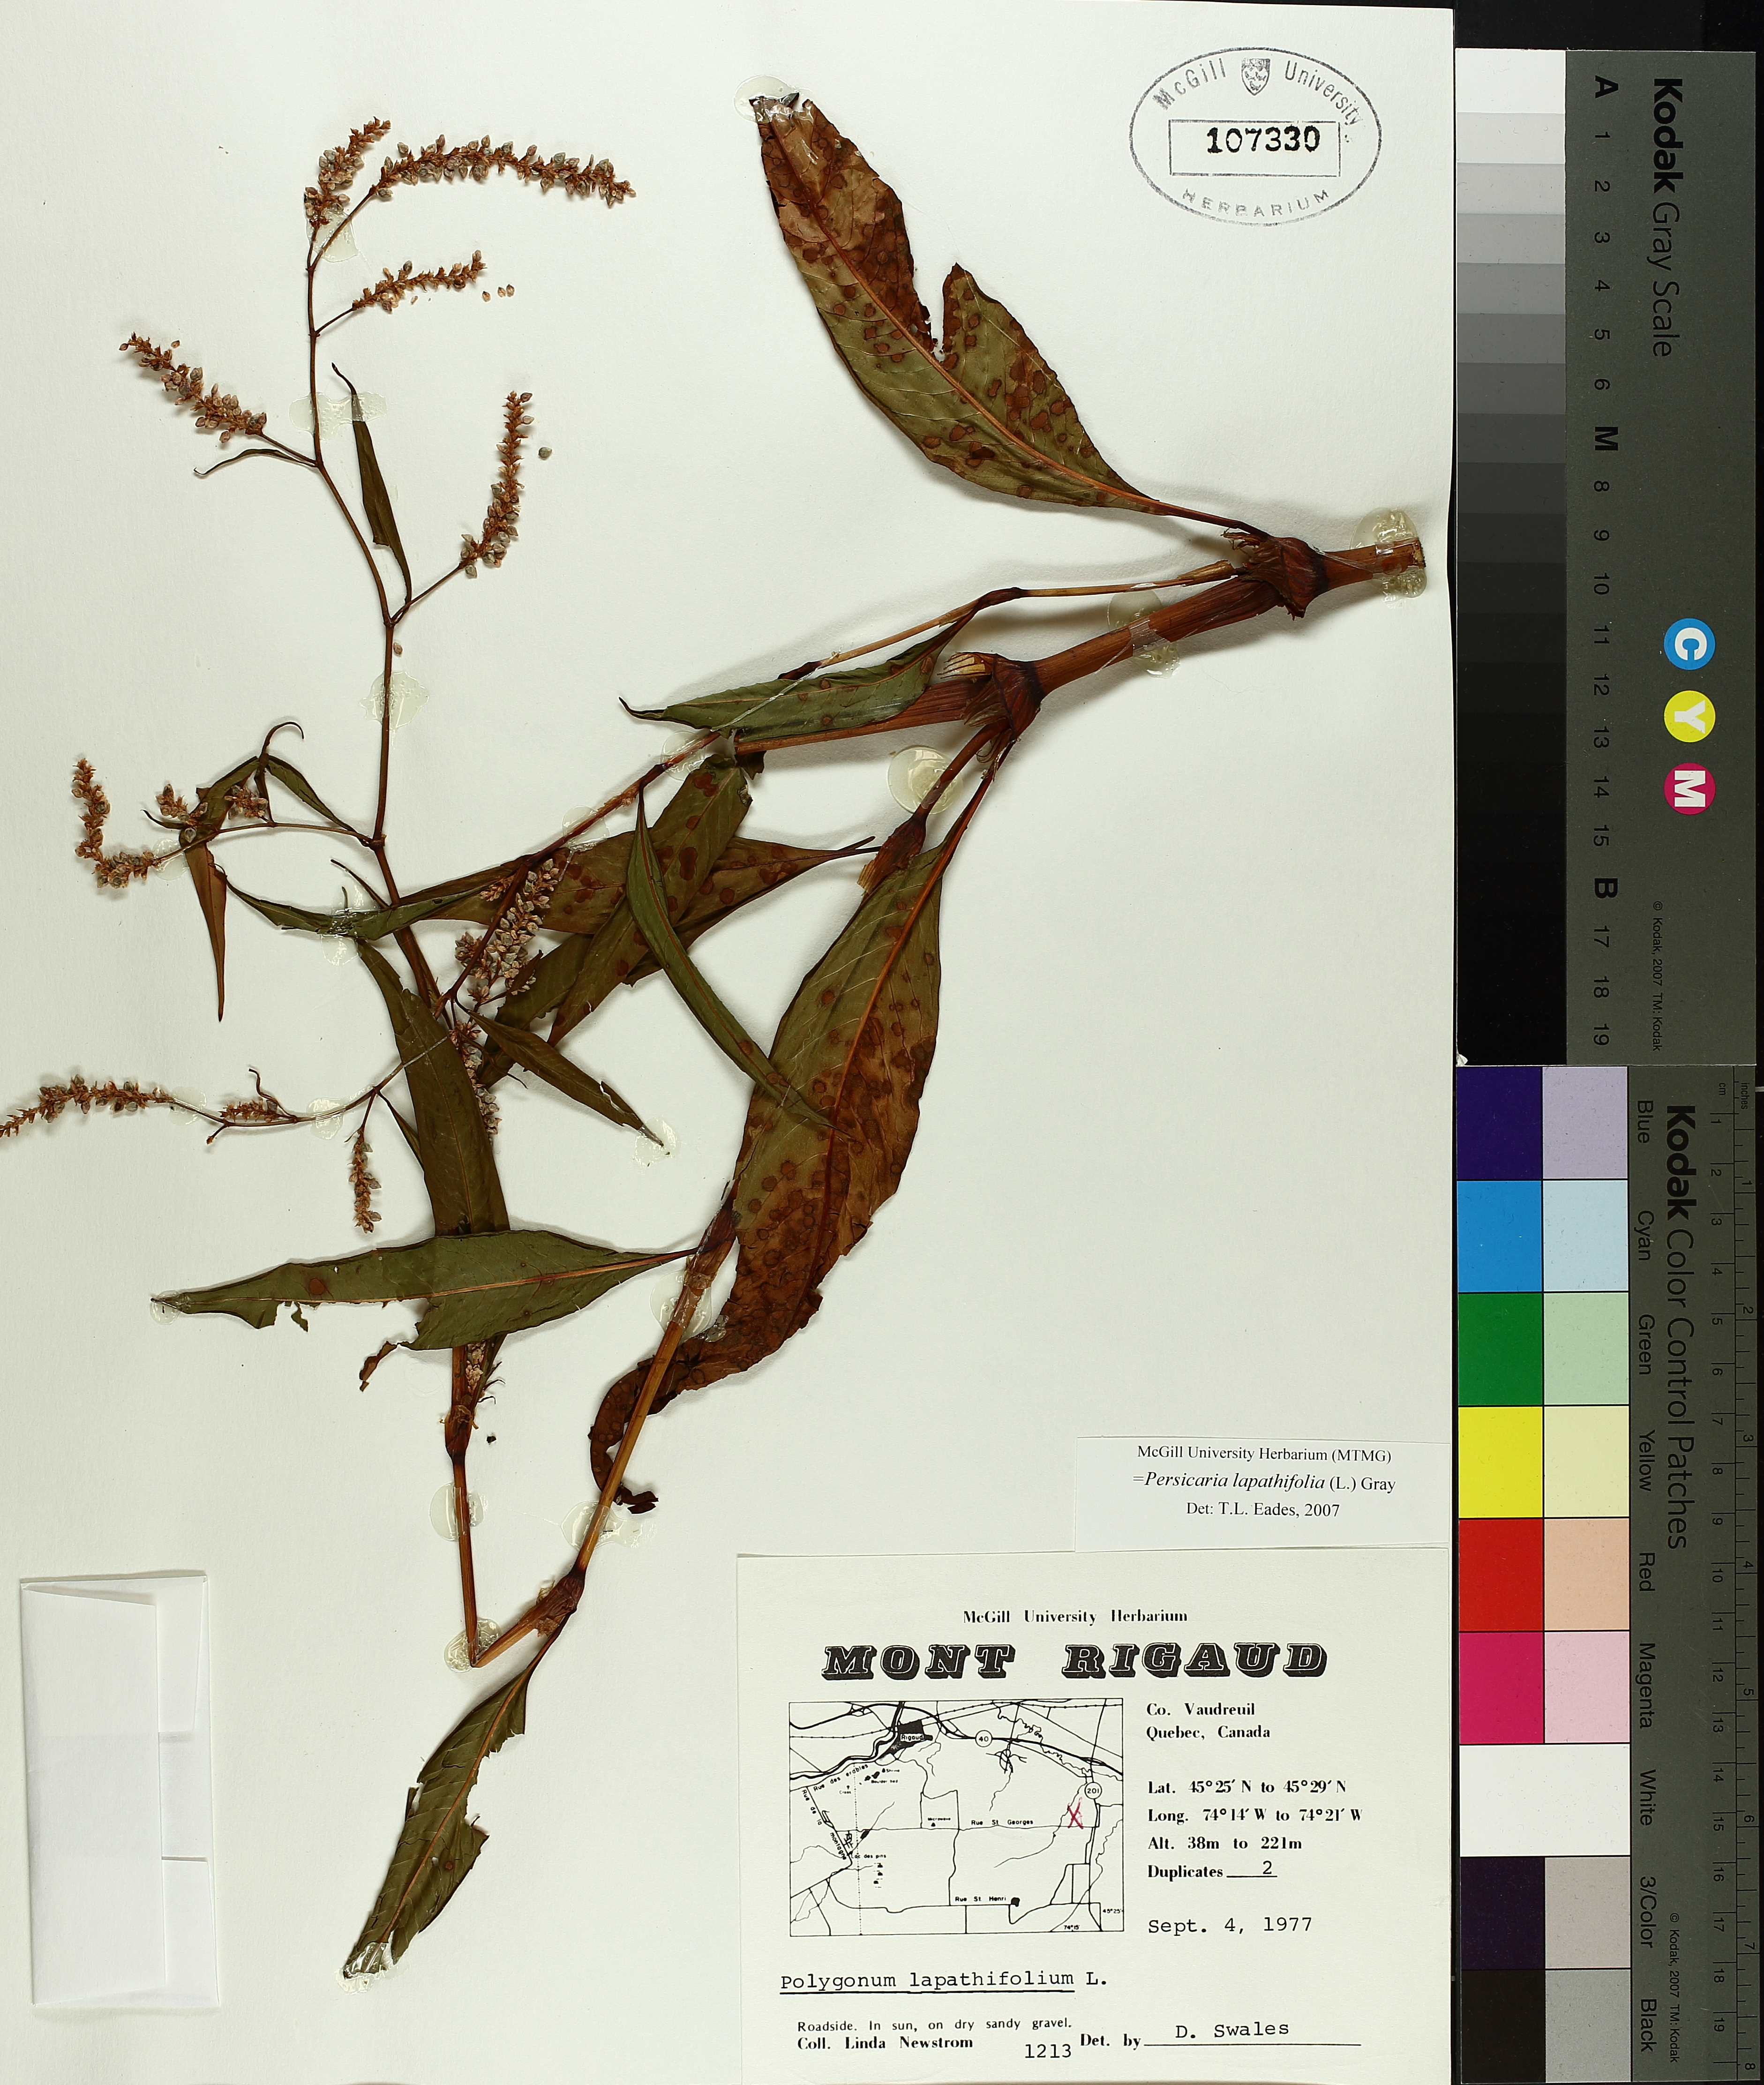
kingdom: Plantae
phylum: Tracheophyta
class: Magnoliopsida
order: Caryophyllales
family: Polygonaceae
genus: Persicaria
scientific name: Persicaria lapathifolia
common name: Curlytop knotweed
